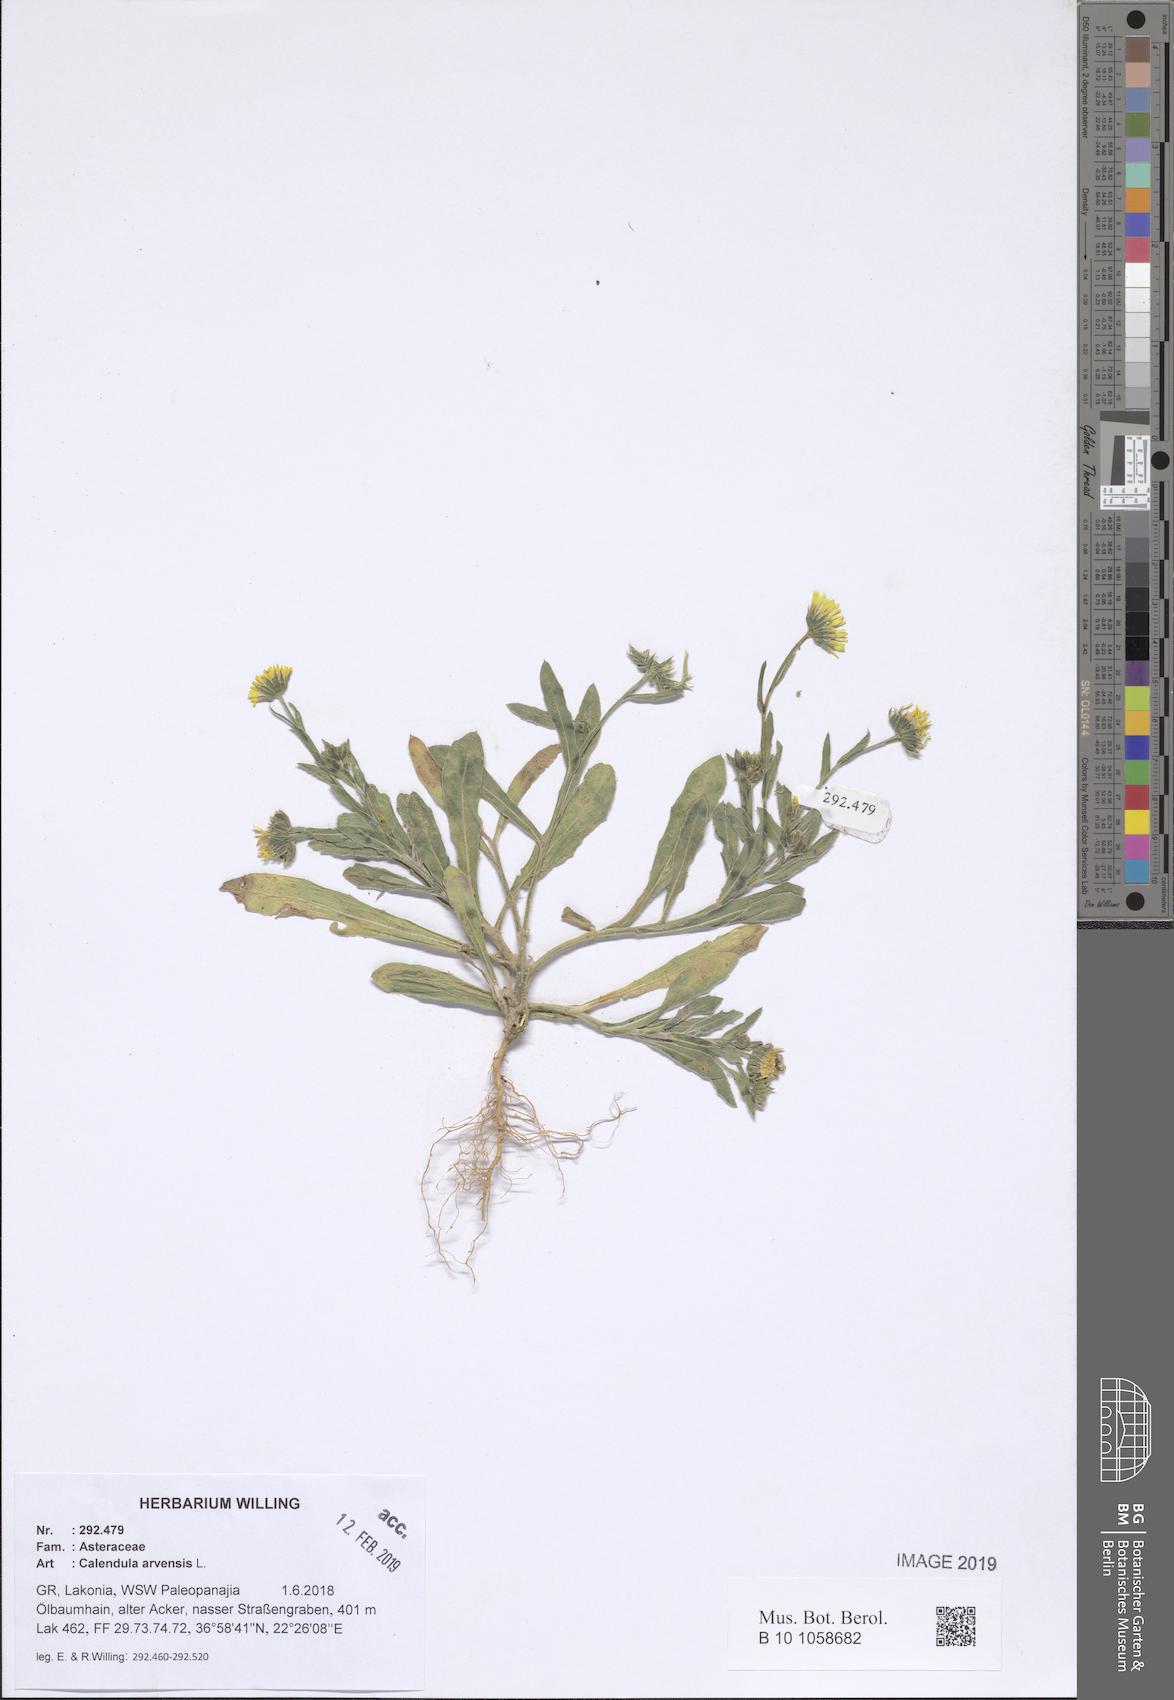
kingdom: Plantae
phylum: Tracheophyta
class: Magnoliopsida
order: Asterales
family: Asteraceae
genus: Calendula
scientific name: Calendula arvensis
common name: Field marigold
